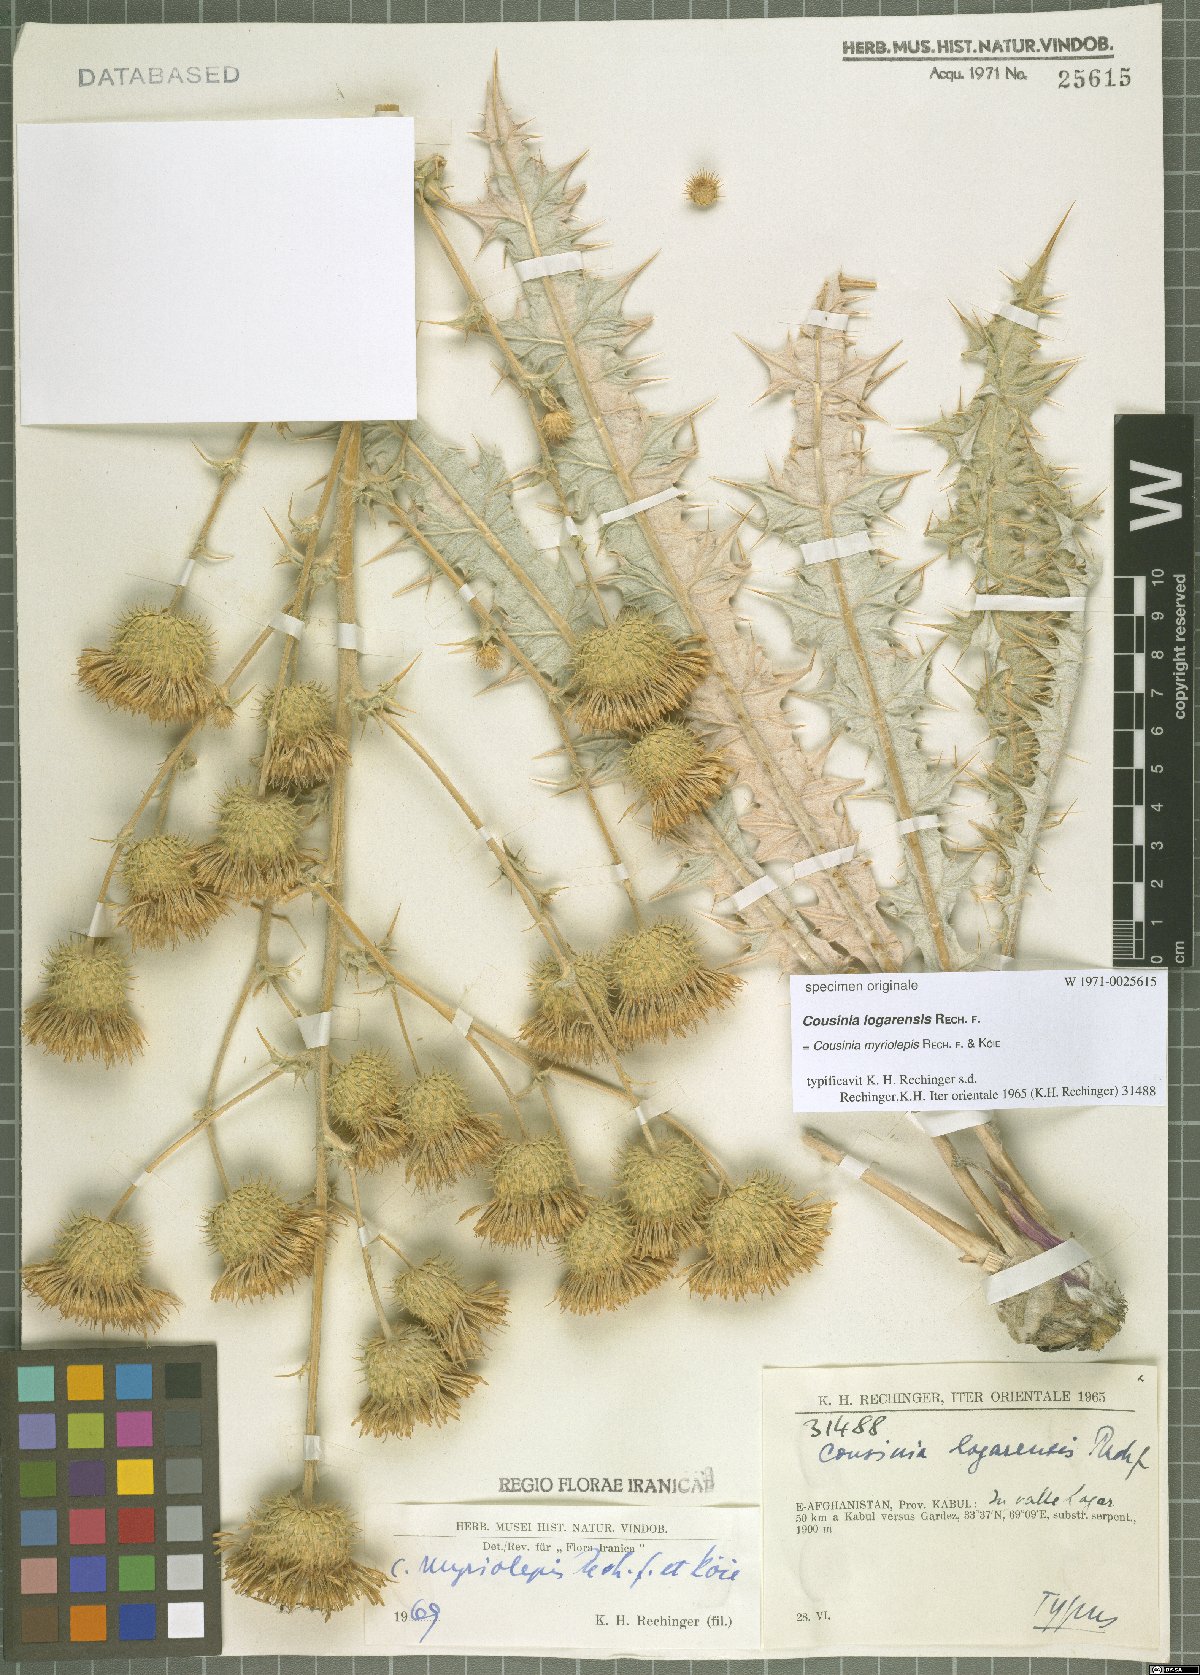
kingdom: Plantae
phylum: Tracheophyta
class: Magnoliopsida
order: Asterales
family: Asteraceae
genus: Cousinia
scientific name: Cousinia myriolepis
